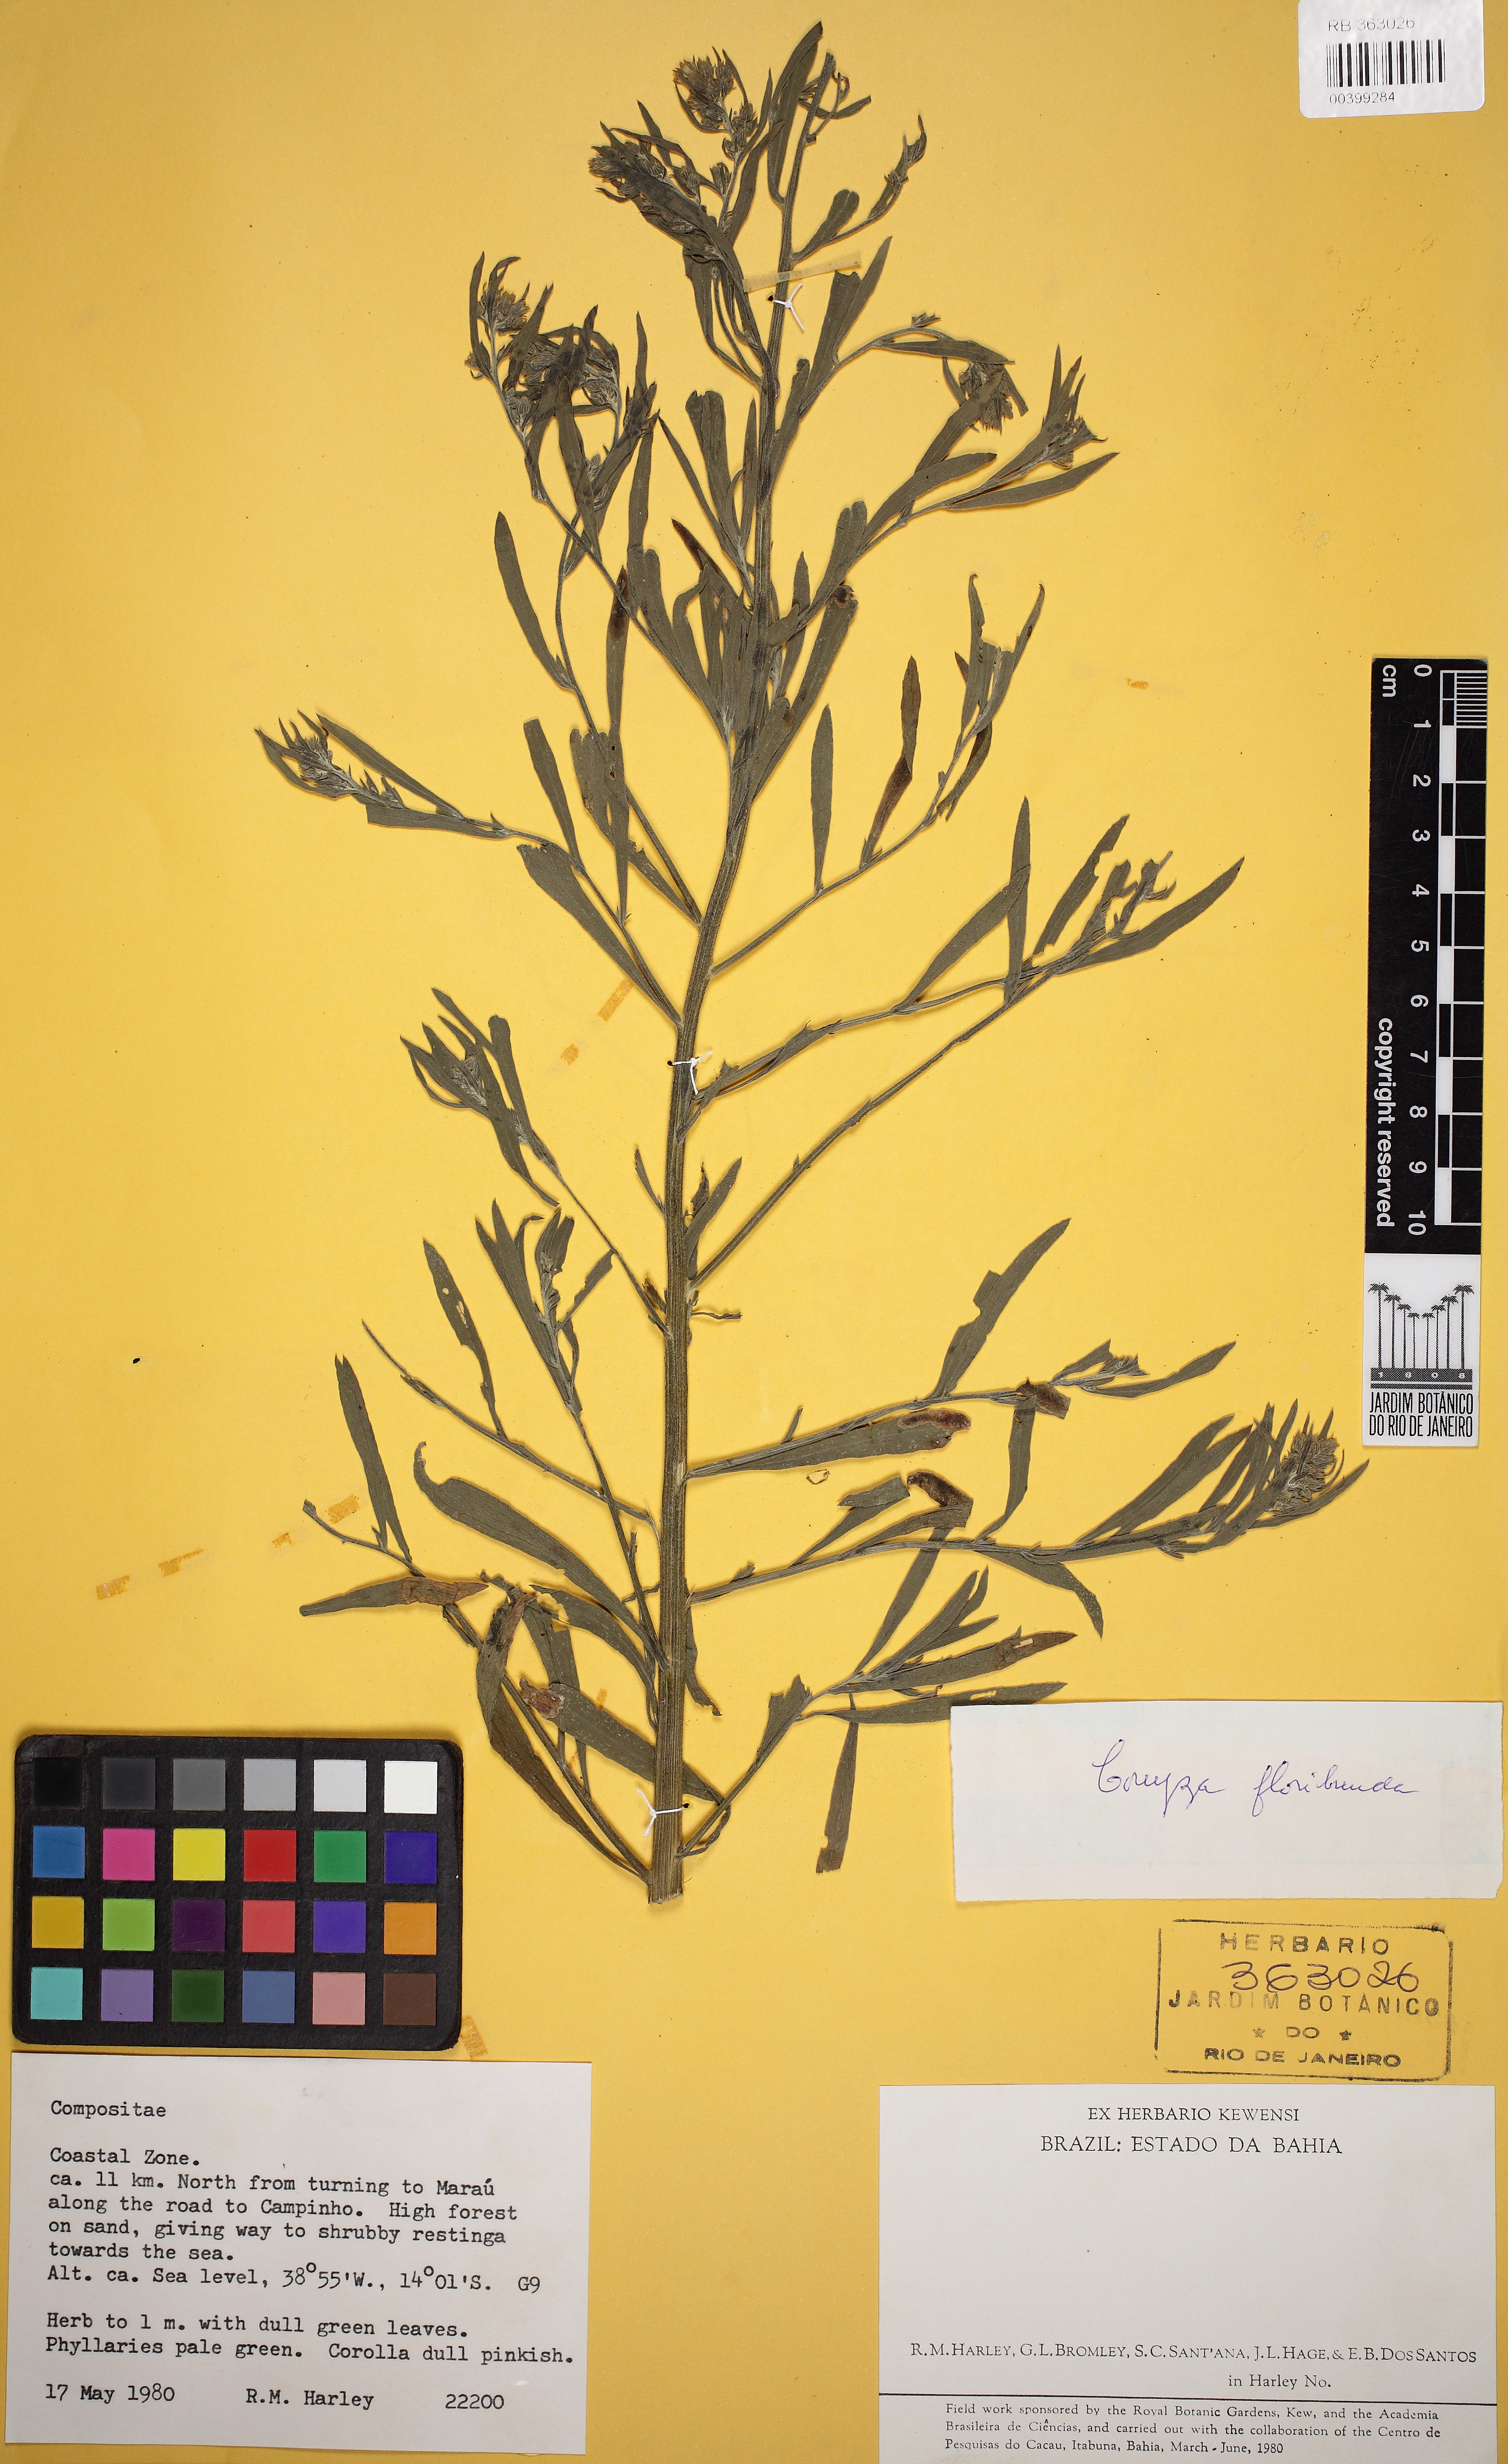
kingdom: Plantae
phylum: Tracheophyta
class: Magnoliopsida
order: Asterales
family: Asteraceae
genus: Erigeron
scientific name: Erigeron floribundus
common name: Bilbao fleabane
